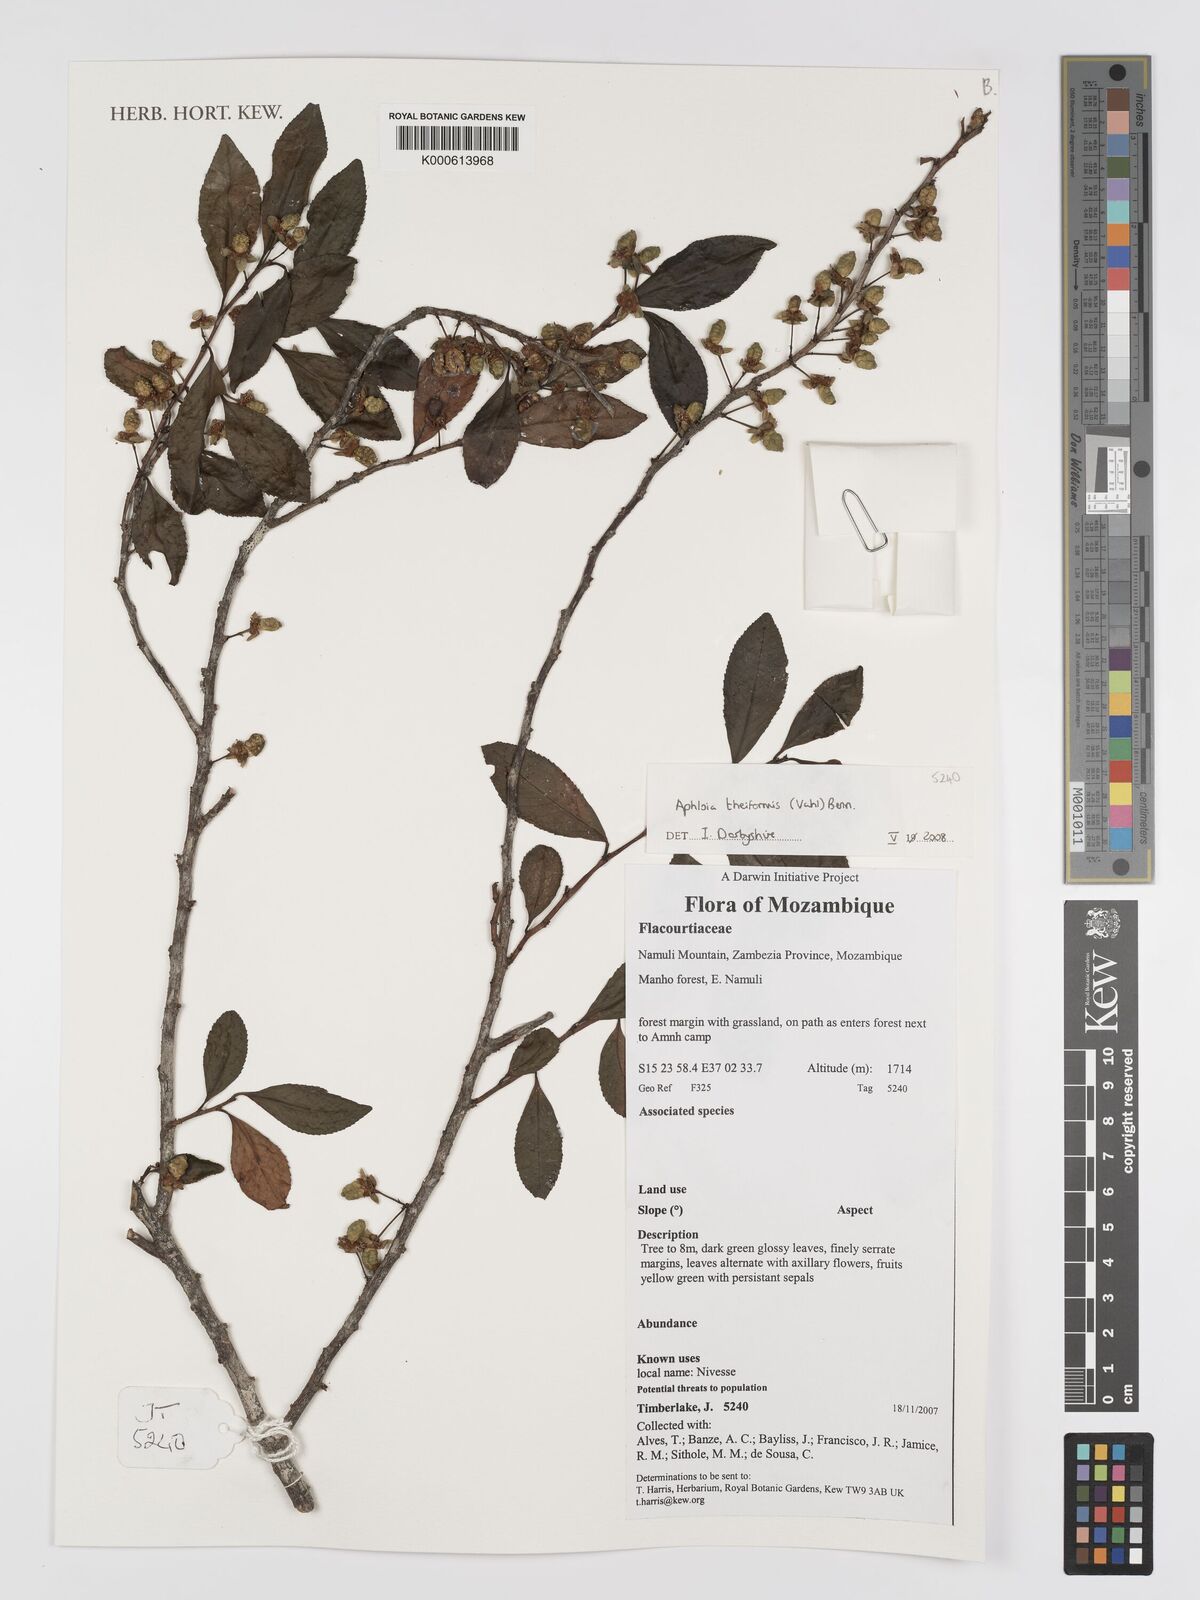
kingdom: Plantae
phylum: Tracheophyta
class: Magnoliopsida
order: Crossosomatales
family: Aphloiaceae
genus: Aphloia
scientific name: Aphloia theiformis
